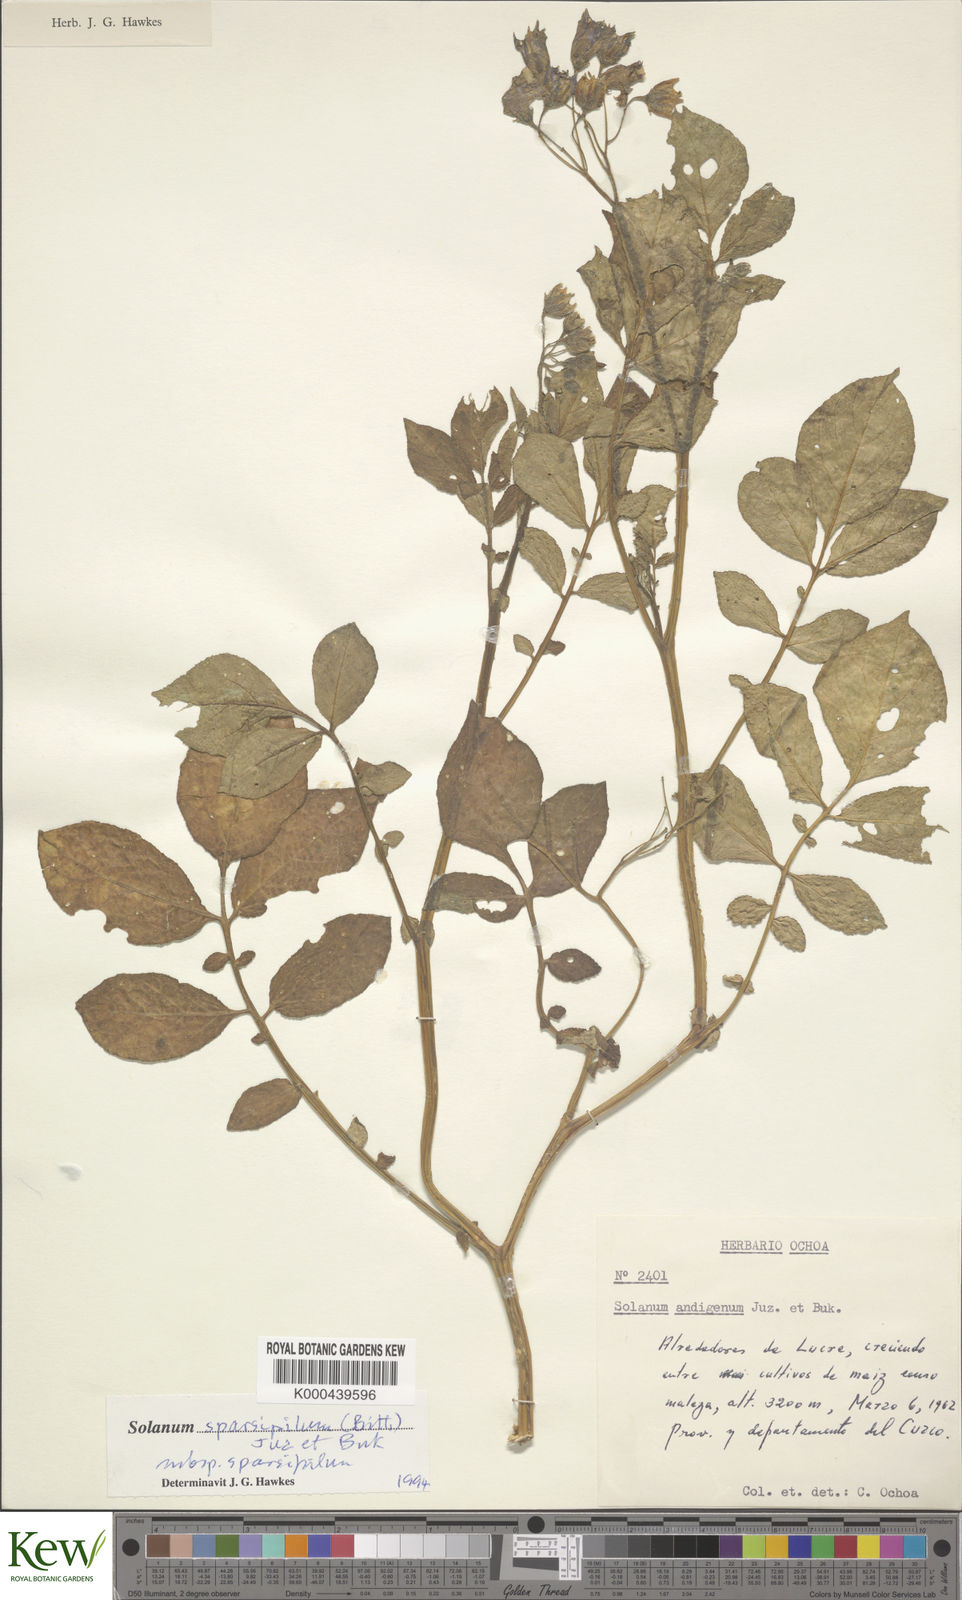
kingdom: Plantae
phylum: Tracheophyta
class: Magnoliopsida
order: Solanales
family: Solanaceae
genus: Solanum
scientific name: Solanum brevicaule
